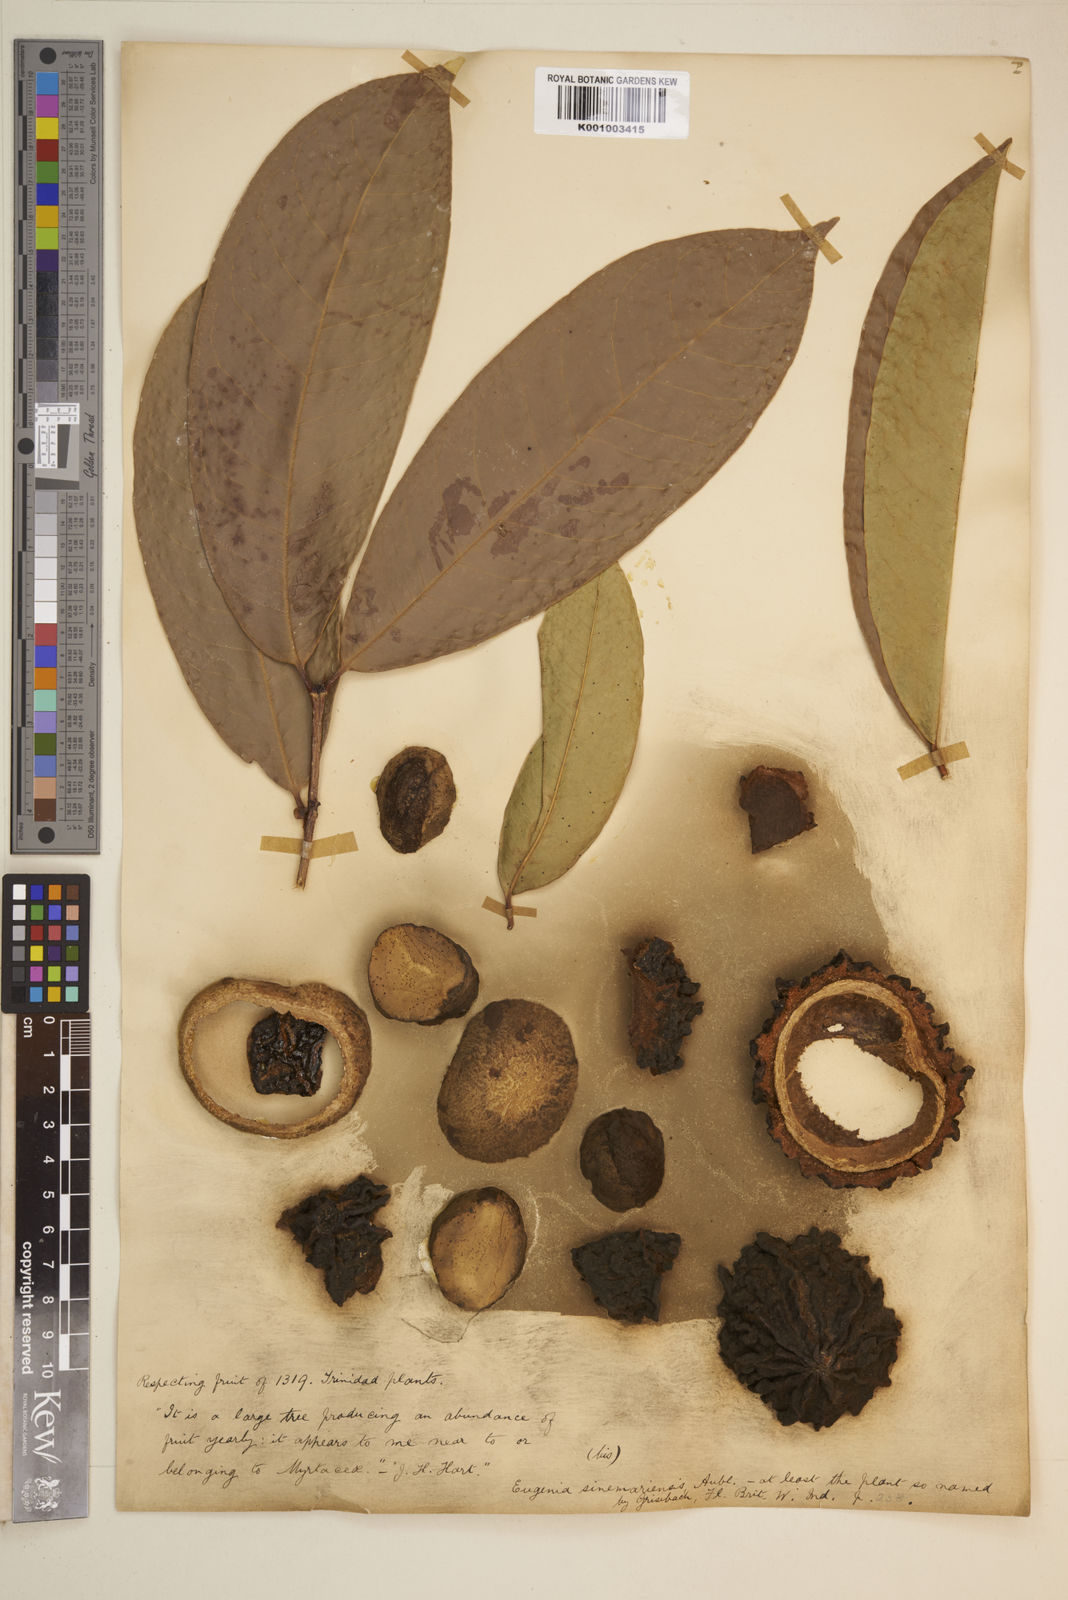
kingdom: Plantae
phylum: Tracheophyta
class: Magnoliopsida
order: Myrtales
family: Myrtaceae
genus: Eugenia
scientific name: Eugenia coffeifolia
